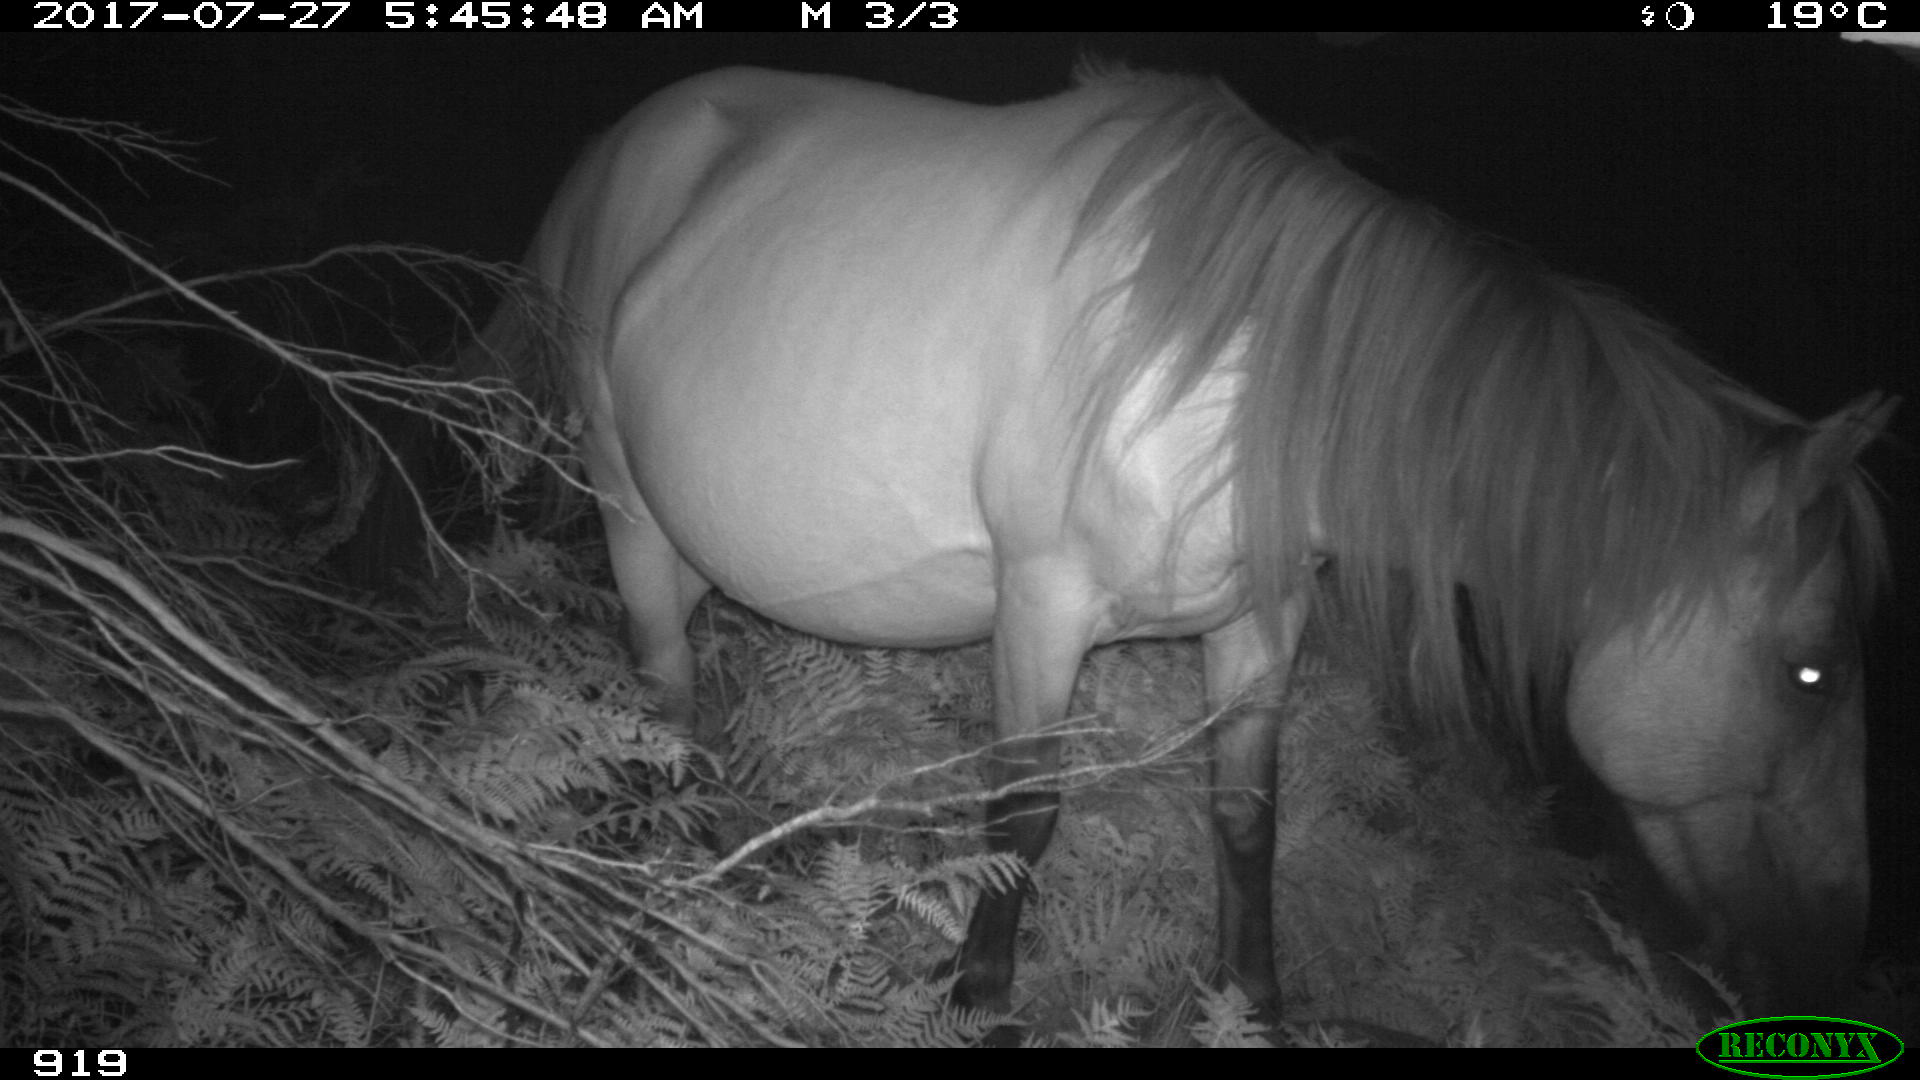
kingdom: Animalia
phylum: Chordata
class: Mammalia
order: Perissodactyla
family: Equidae
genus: Equus
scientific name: Equus caballus
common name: Horse
